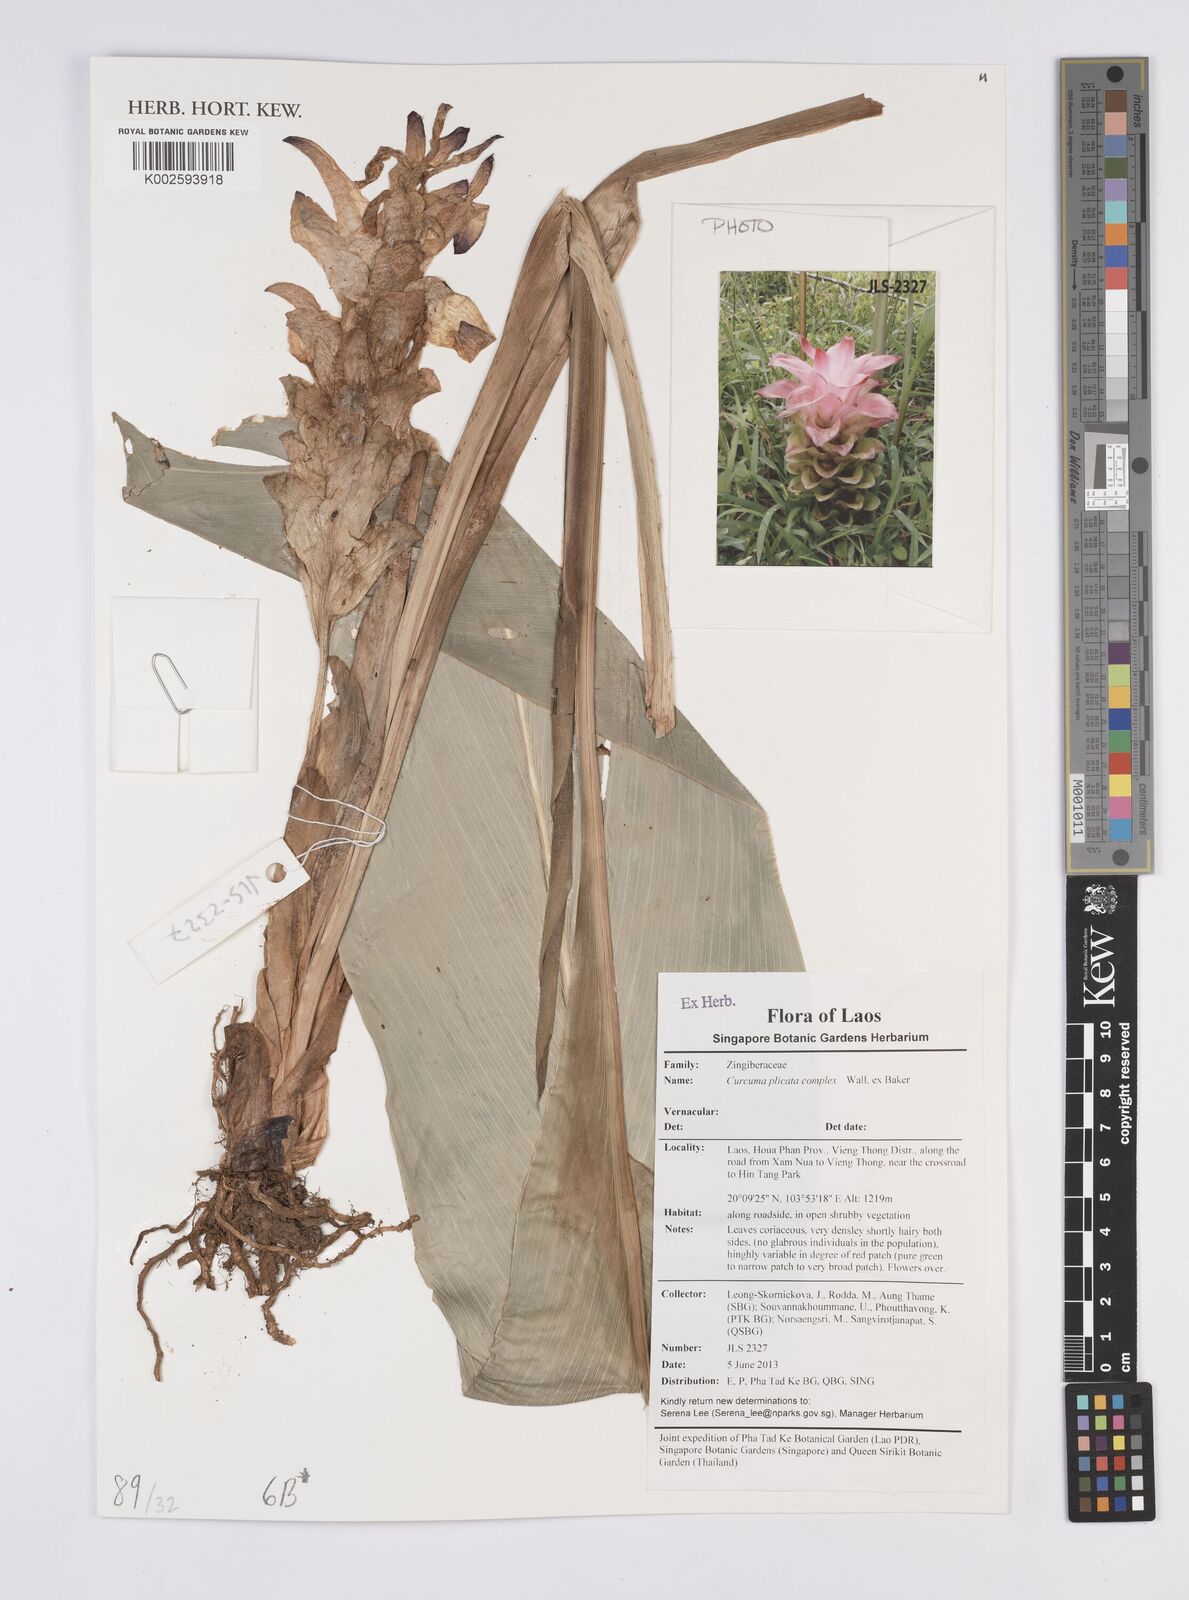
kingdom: Plantae
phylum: Tracheophyta
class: Liliopsida
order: Zingiberales
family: Zingiberaceae
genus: Curcuma
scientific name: Curcuma plicata
